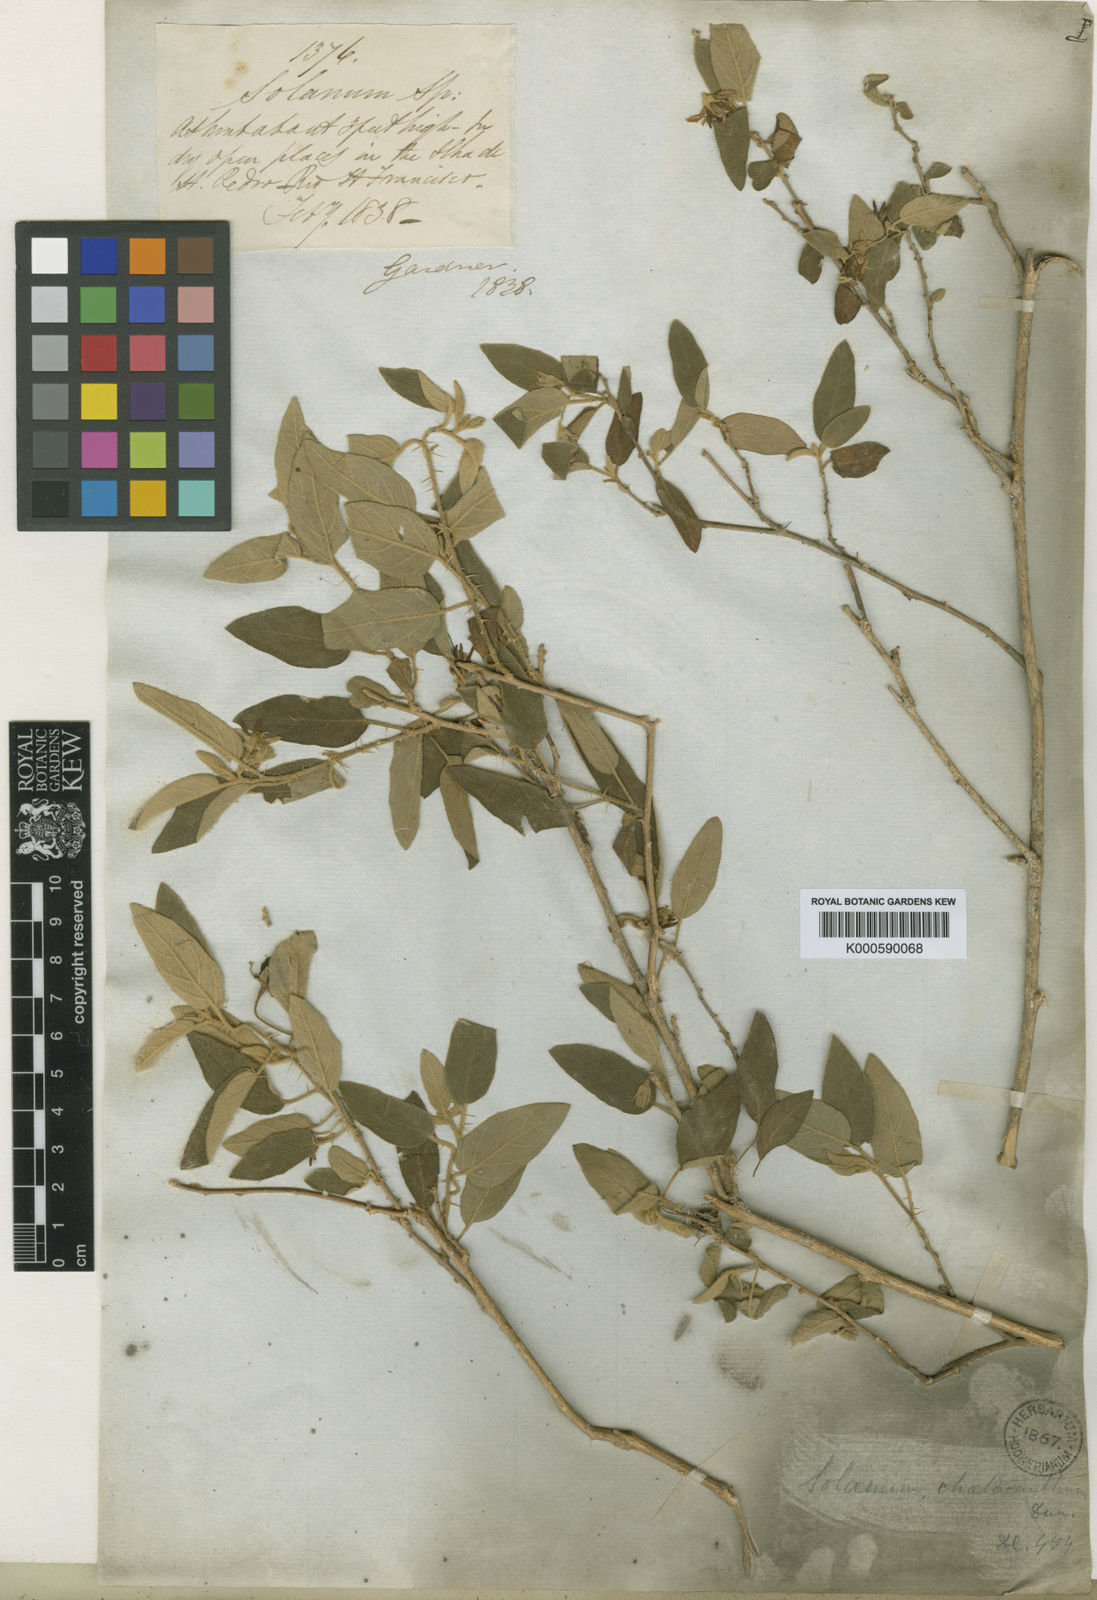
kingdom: Plantae
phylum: Tracheophyta
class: Magnoliopsida
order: Solanales
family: Solanaceae
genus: Solanum
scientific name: Solanum gardneri
